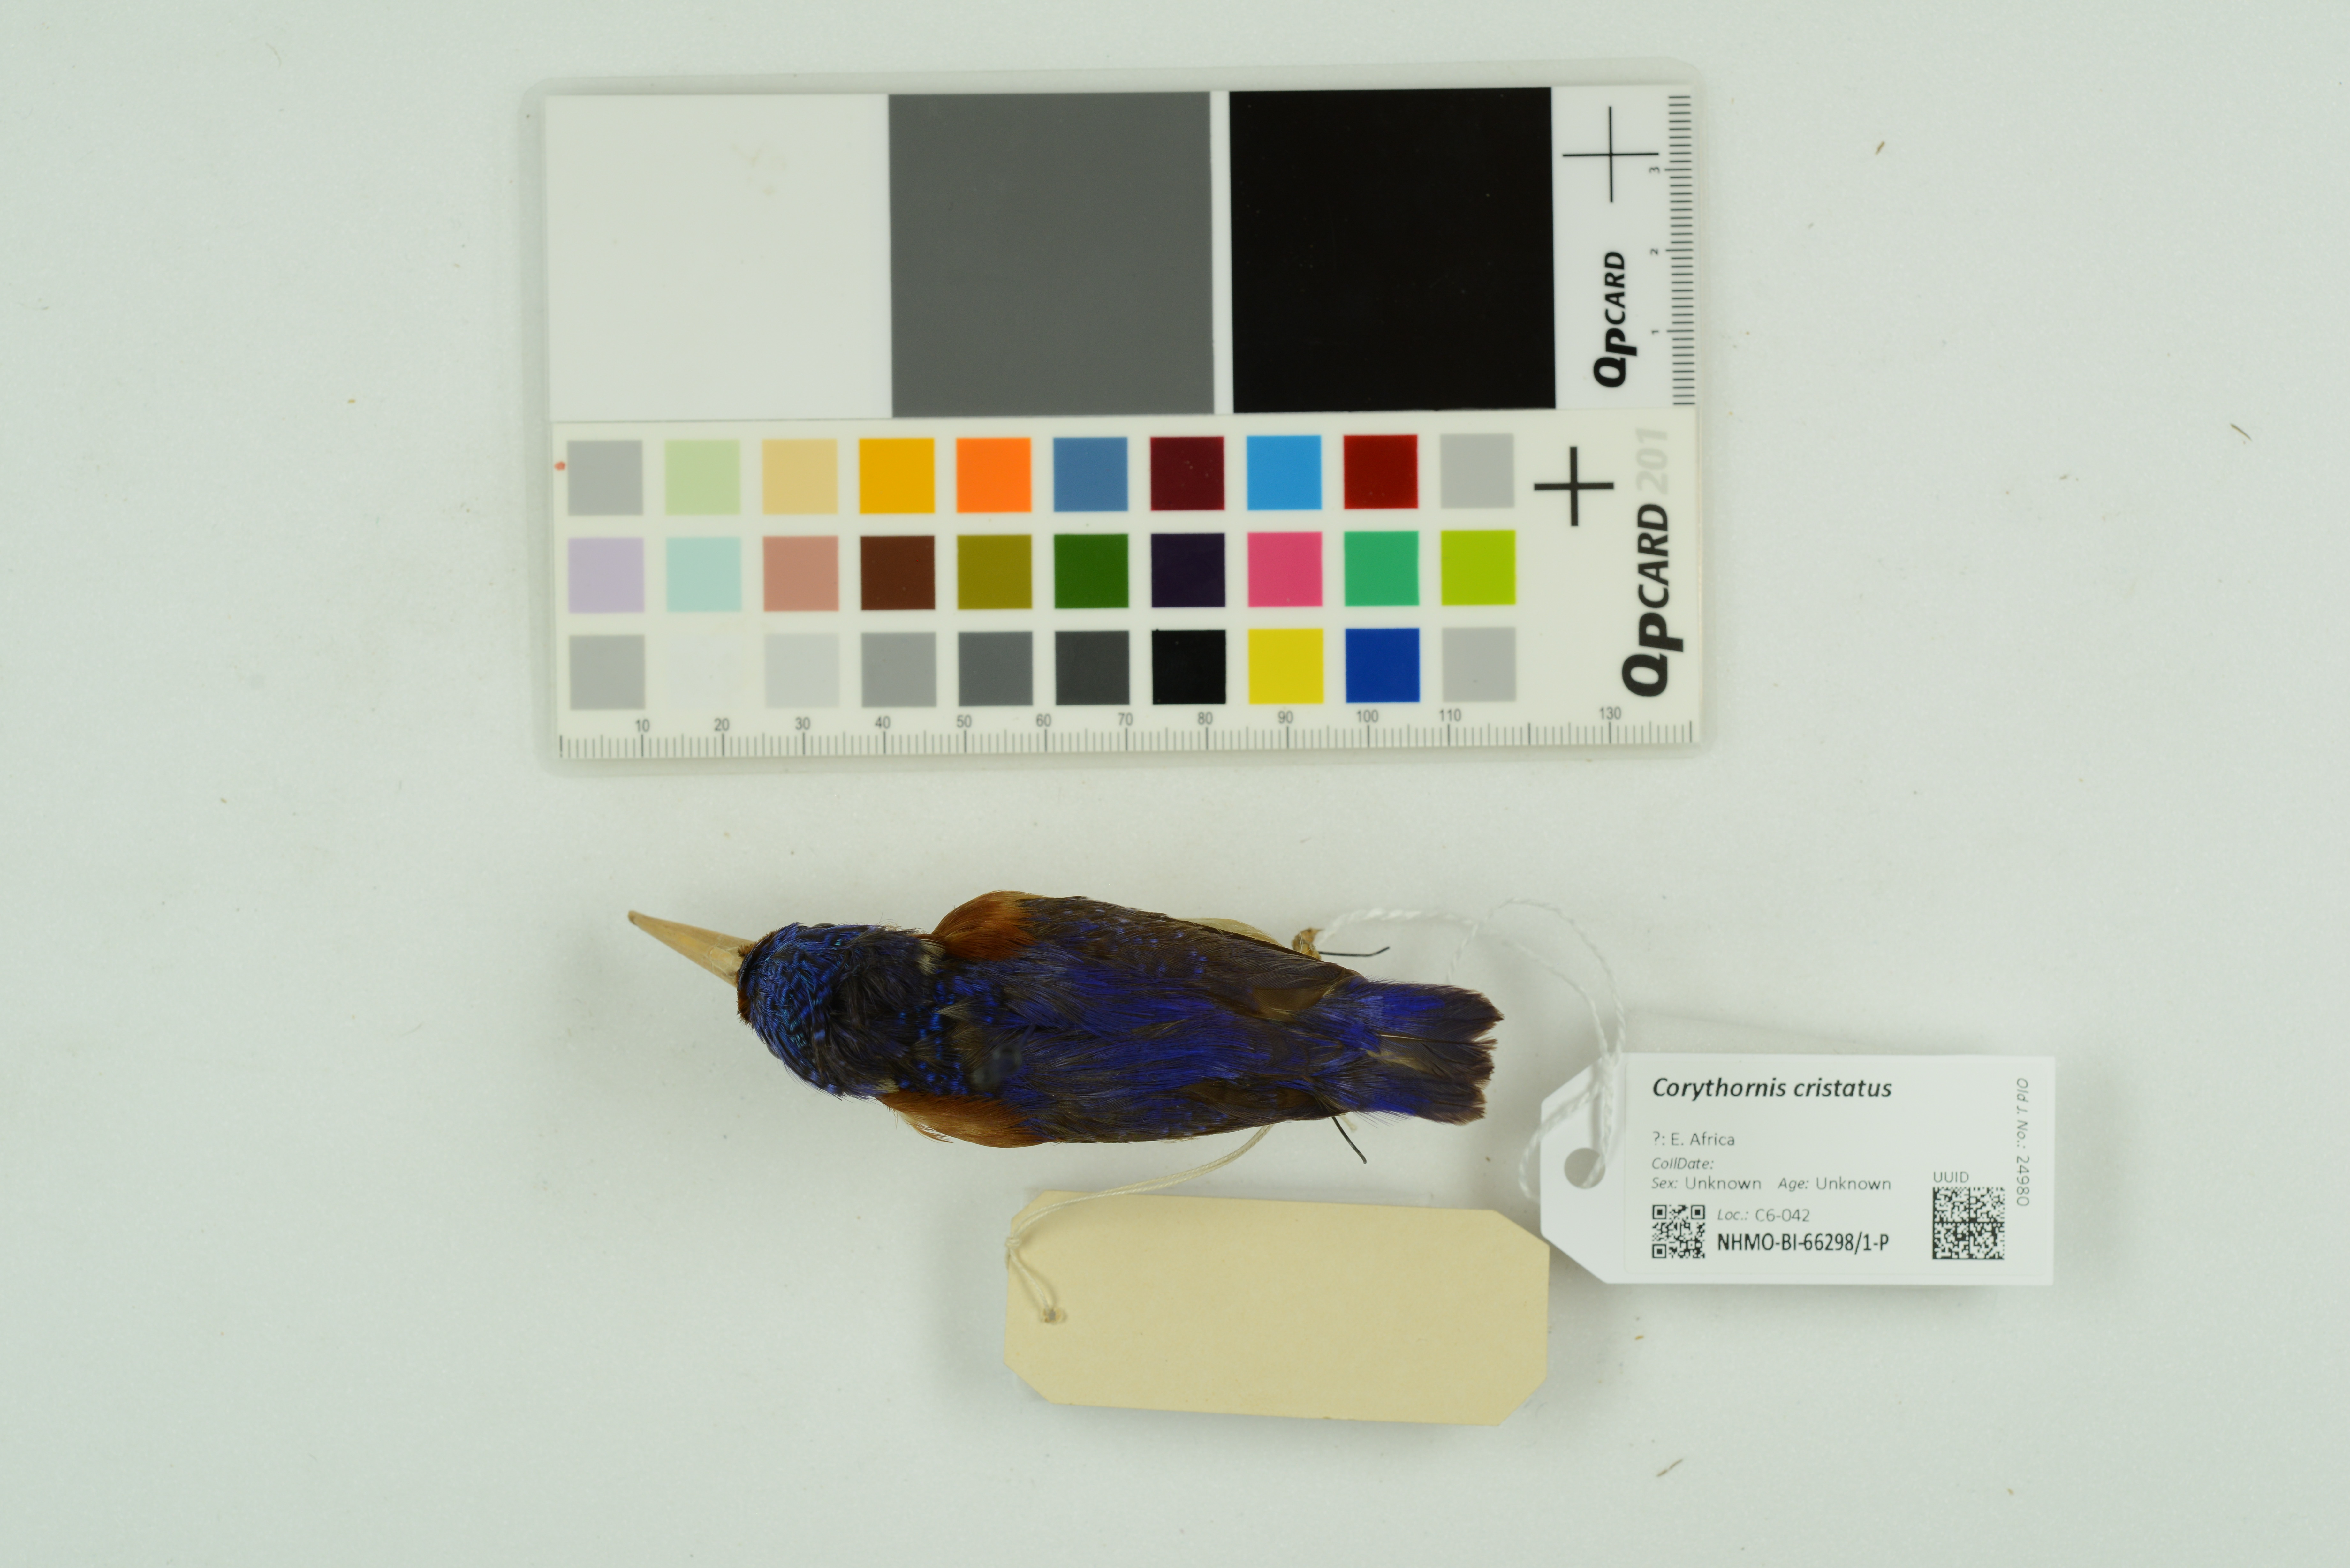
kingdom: Animalia
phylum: Chordata
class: Aves
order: Coraciiformes
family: Alcedinidae
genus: Corythornis
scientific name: Corythornis cristatus
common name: Malachite kingfisher
